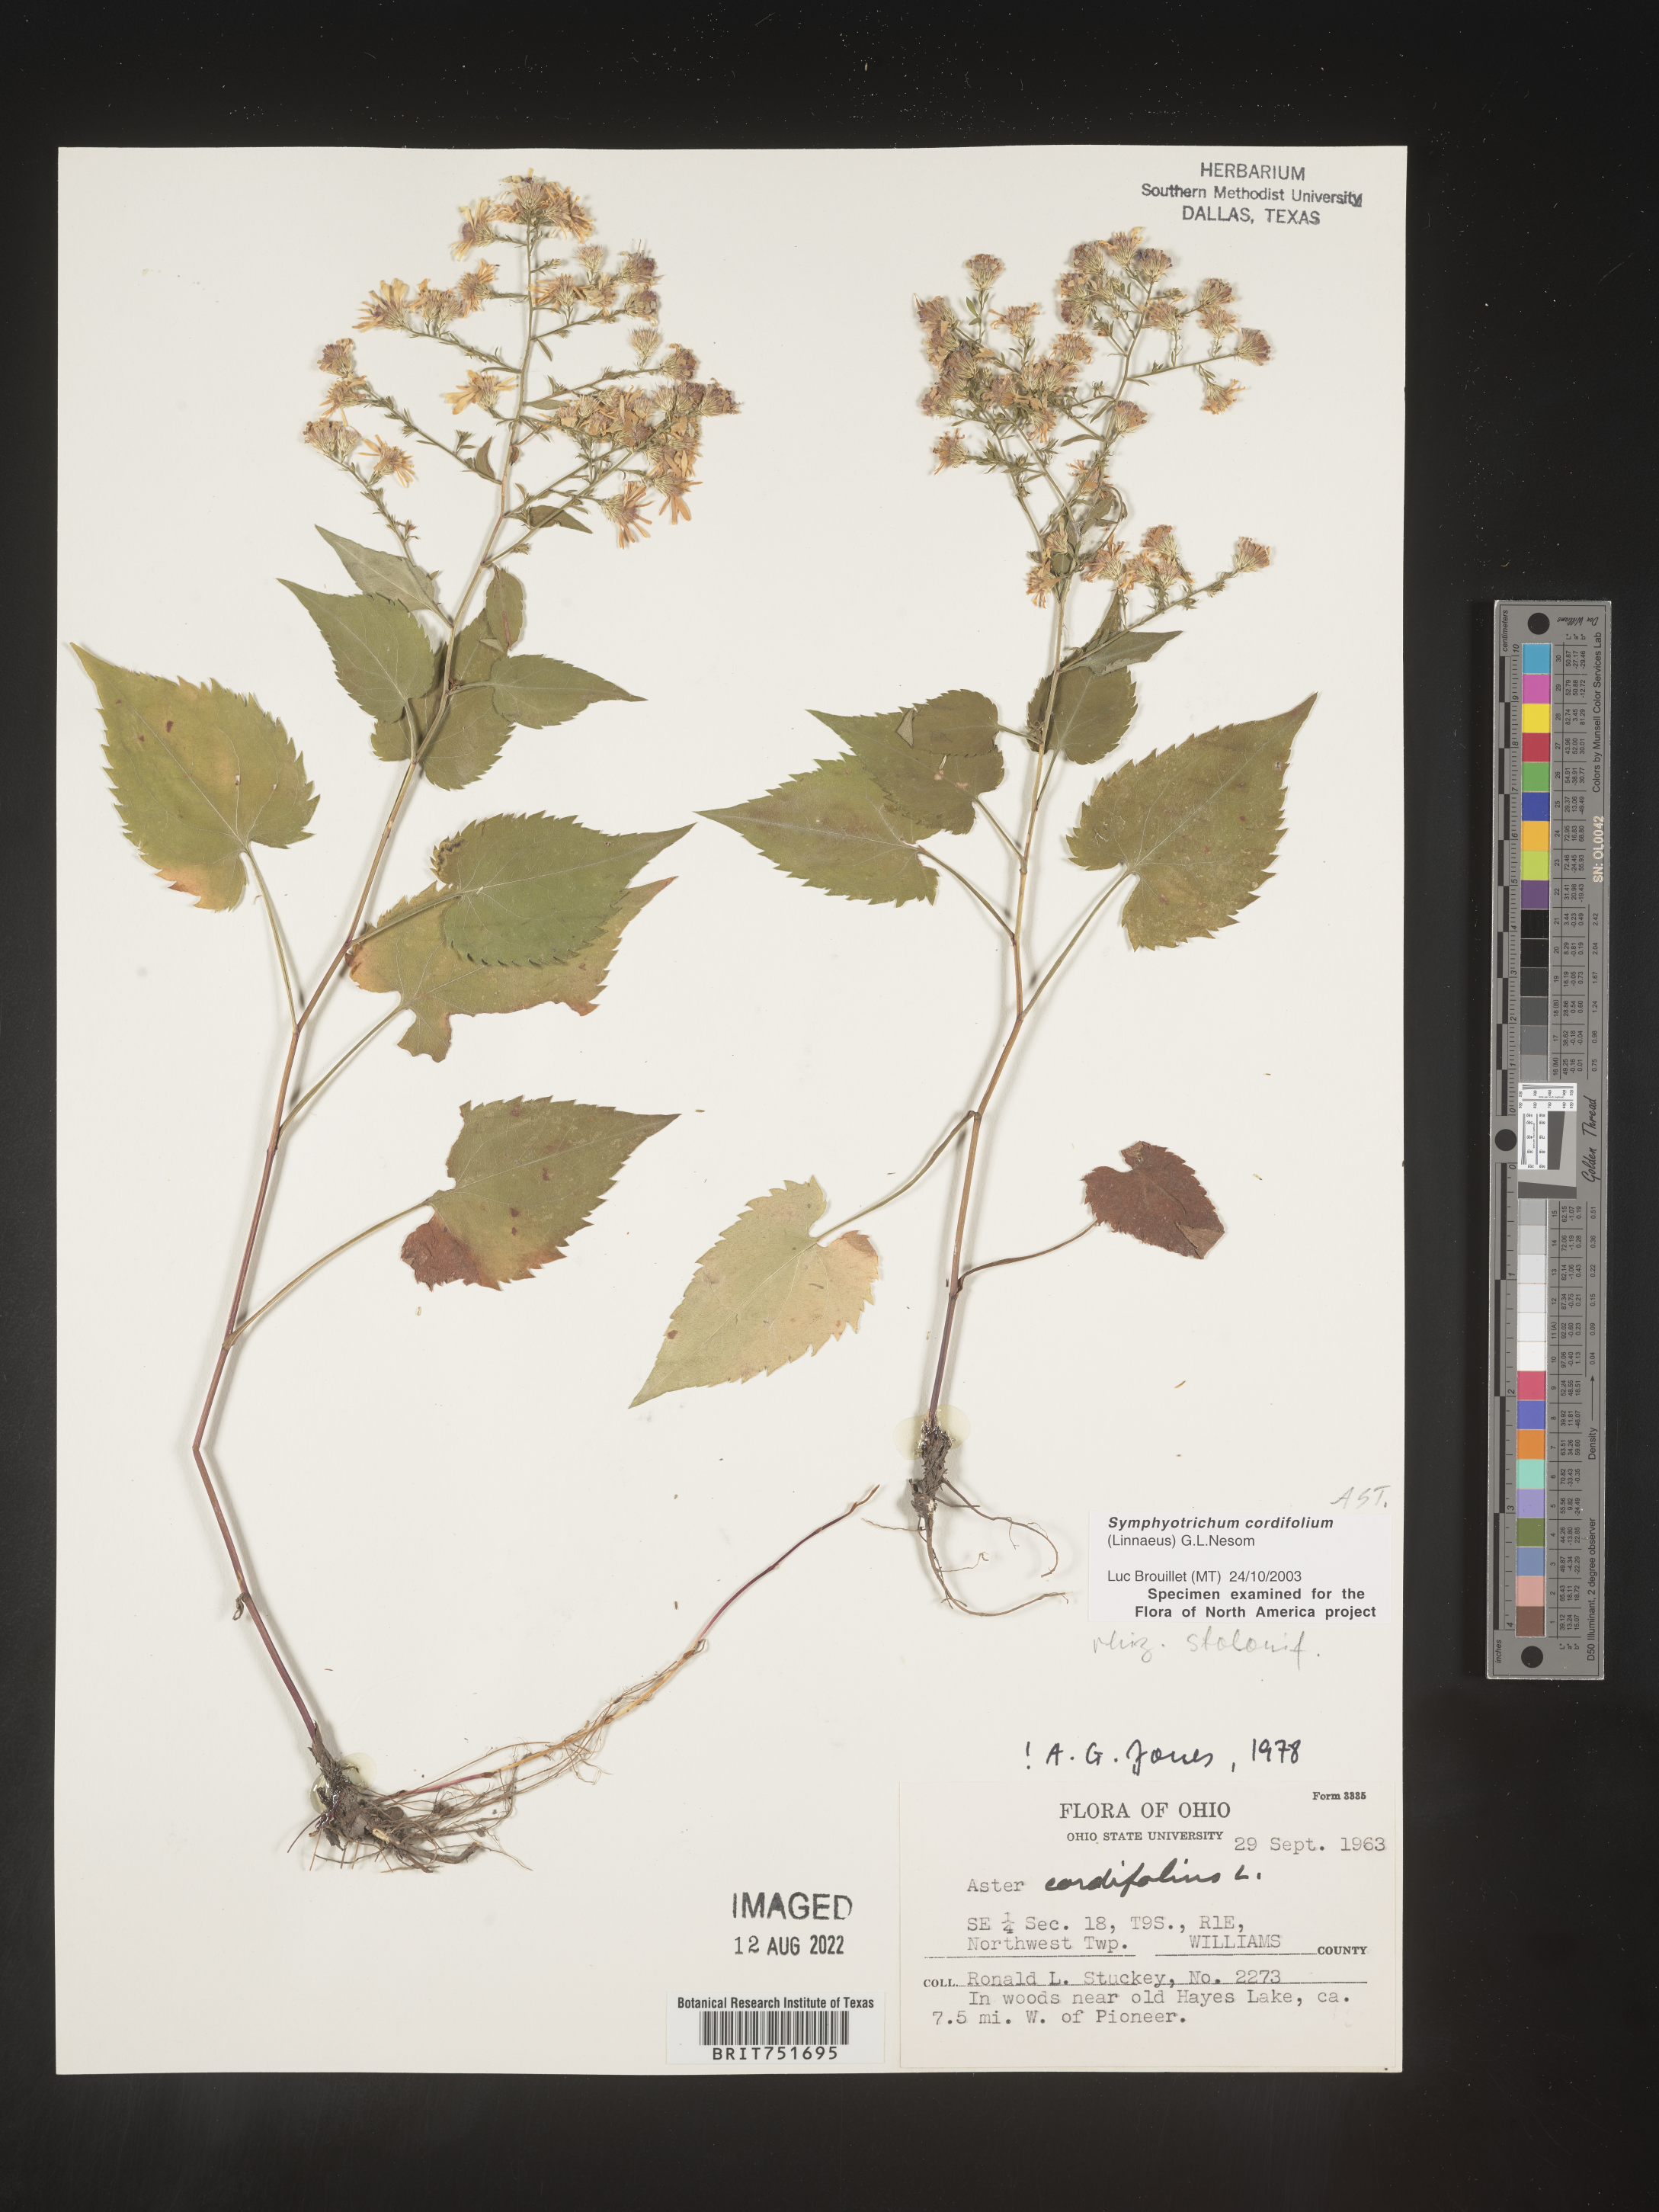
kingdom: Plantae
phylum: Tracheophyta
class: Magnoliopsida
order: Asterales
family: Asteraceae
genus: Symphyotrichum
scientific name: Symphyotrichum cordifolium
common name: Beeweed
